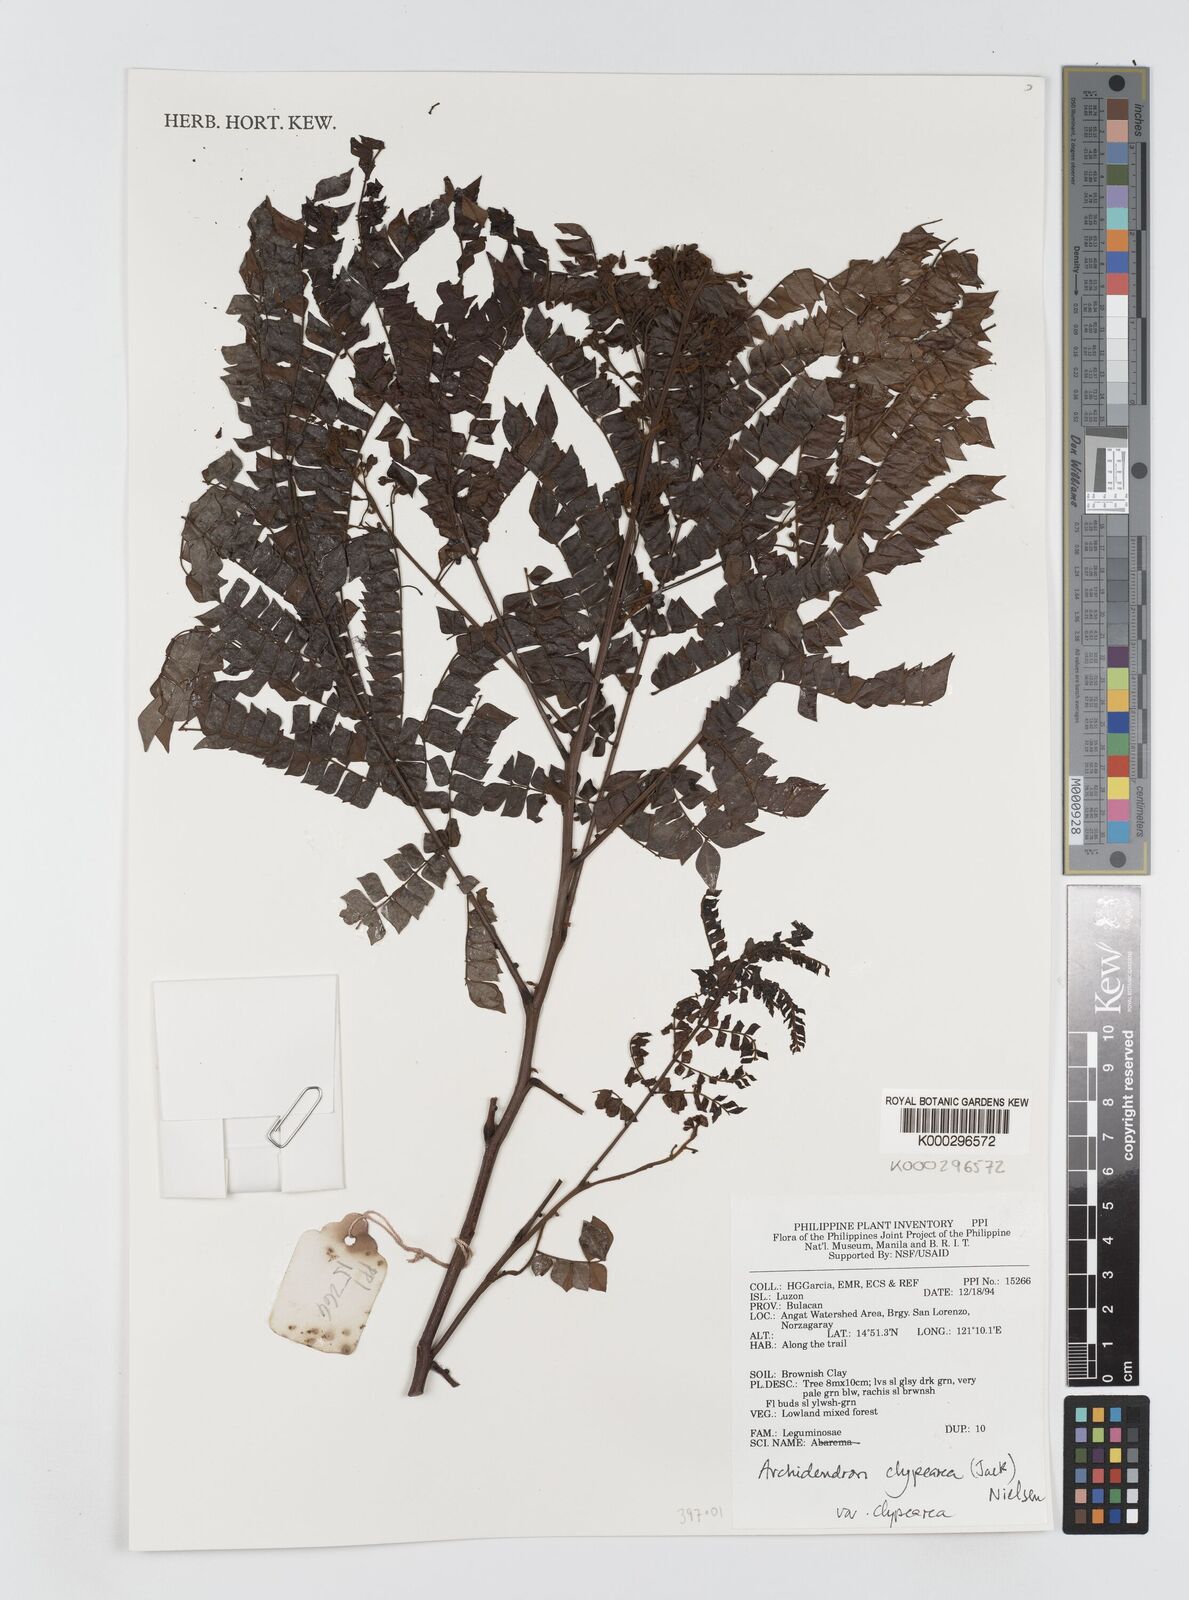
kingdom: Plantae
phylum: Tracheophyta
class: Magnoliopsida
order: Fabales
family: Fabaceae
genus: Archidendron
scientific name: Archidendron clypearia
